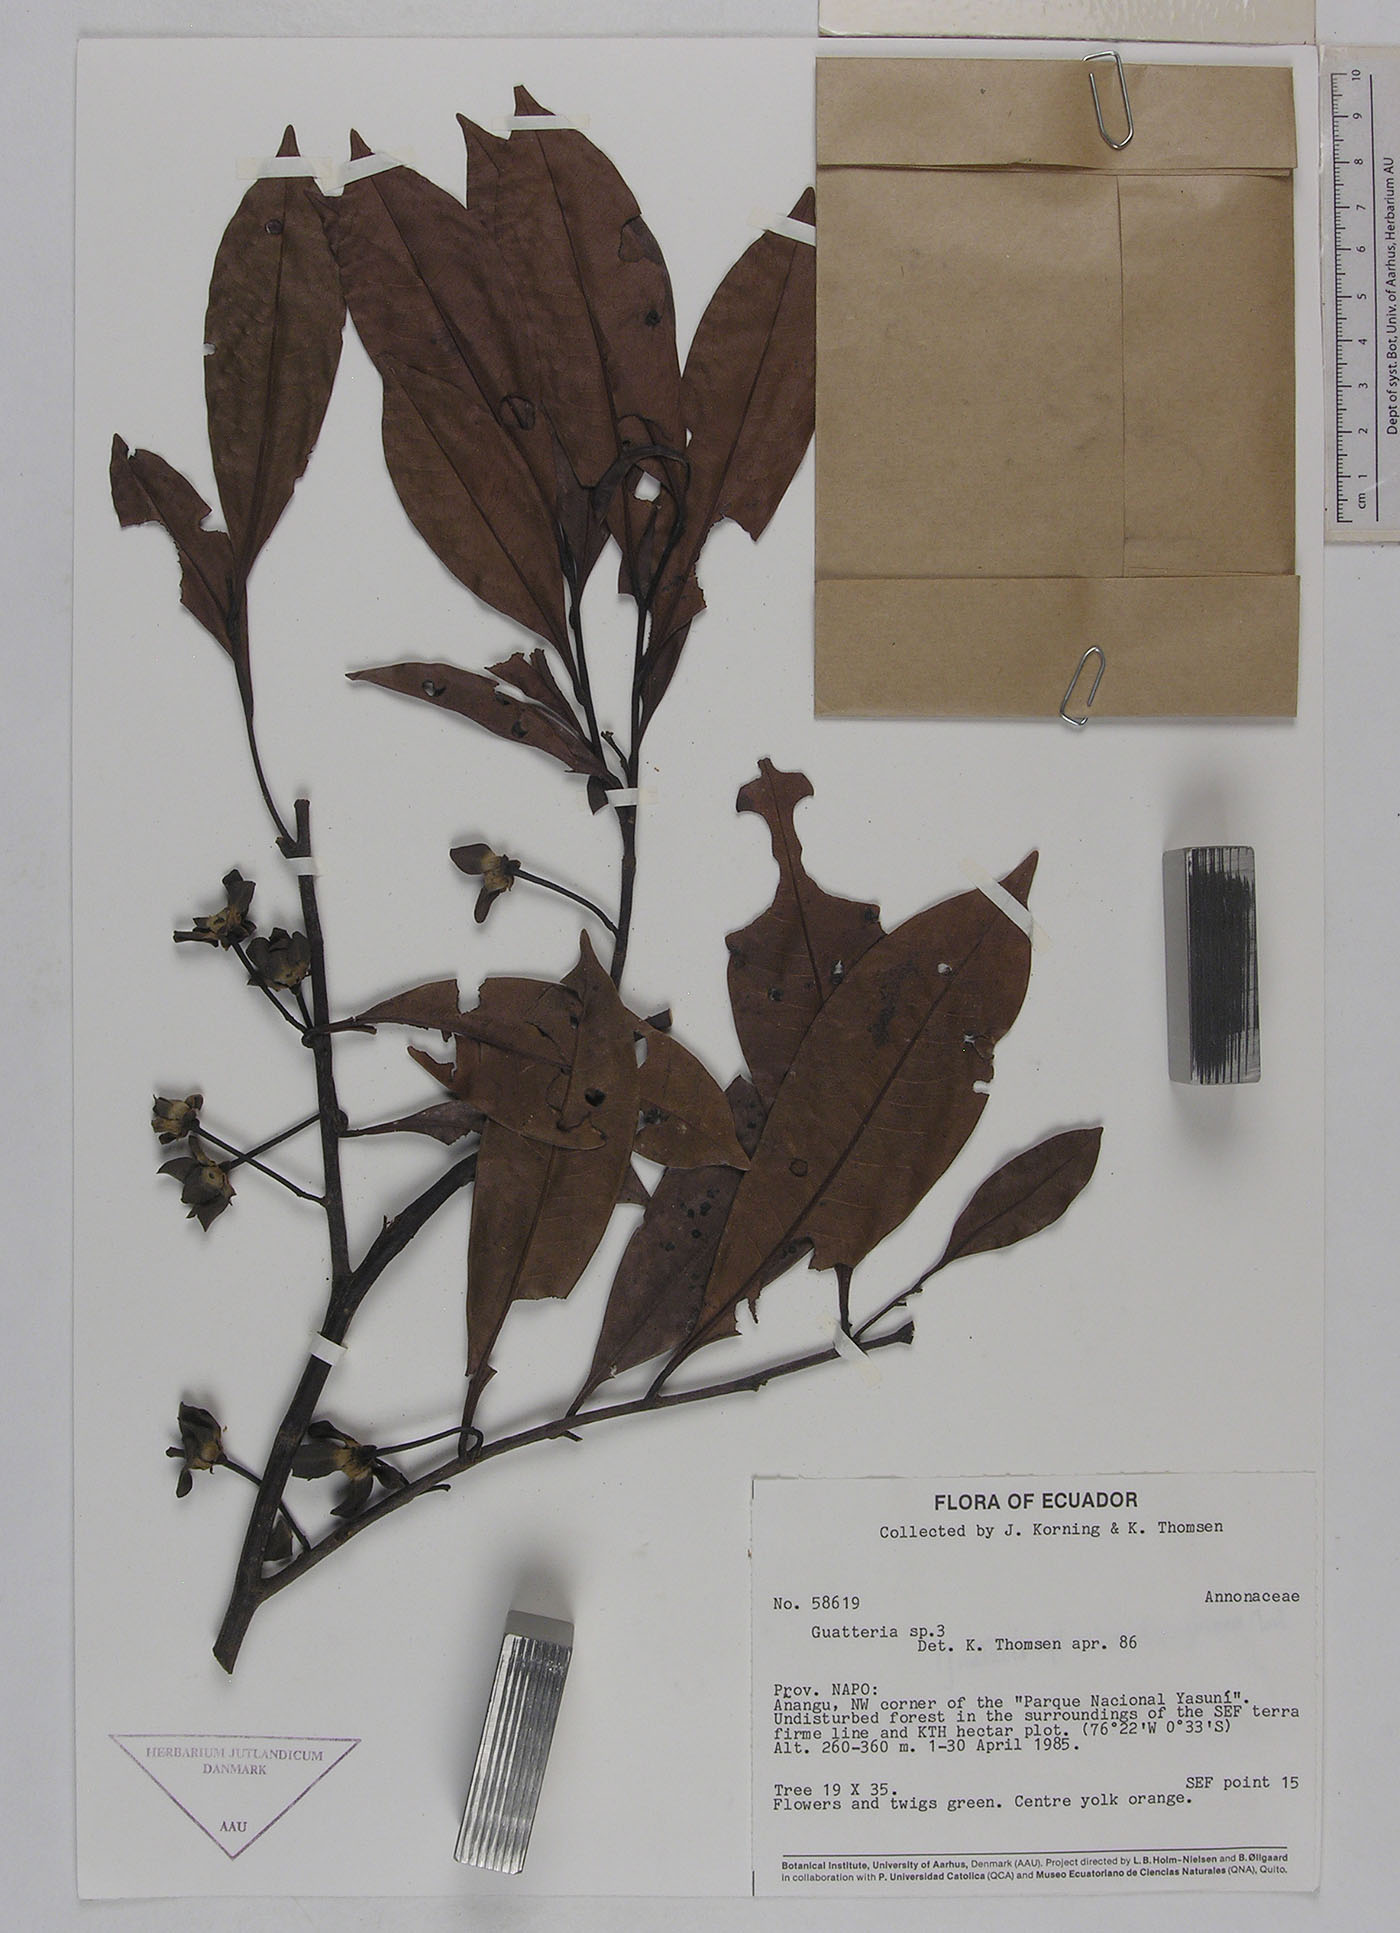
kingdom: Plantae
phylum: Tracheophyta
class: Magnoliopsida
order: Magnoliales
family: Annonaceae
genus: Guatteria
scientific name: Guatteria modesta
